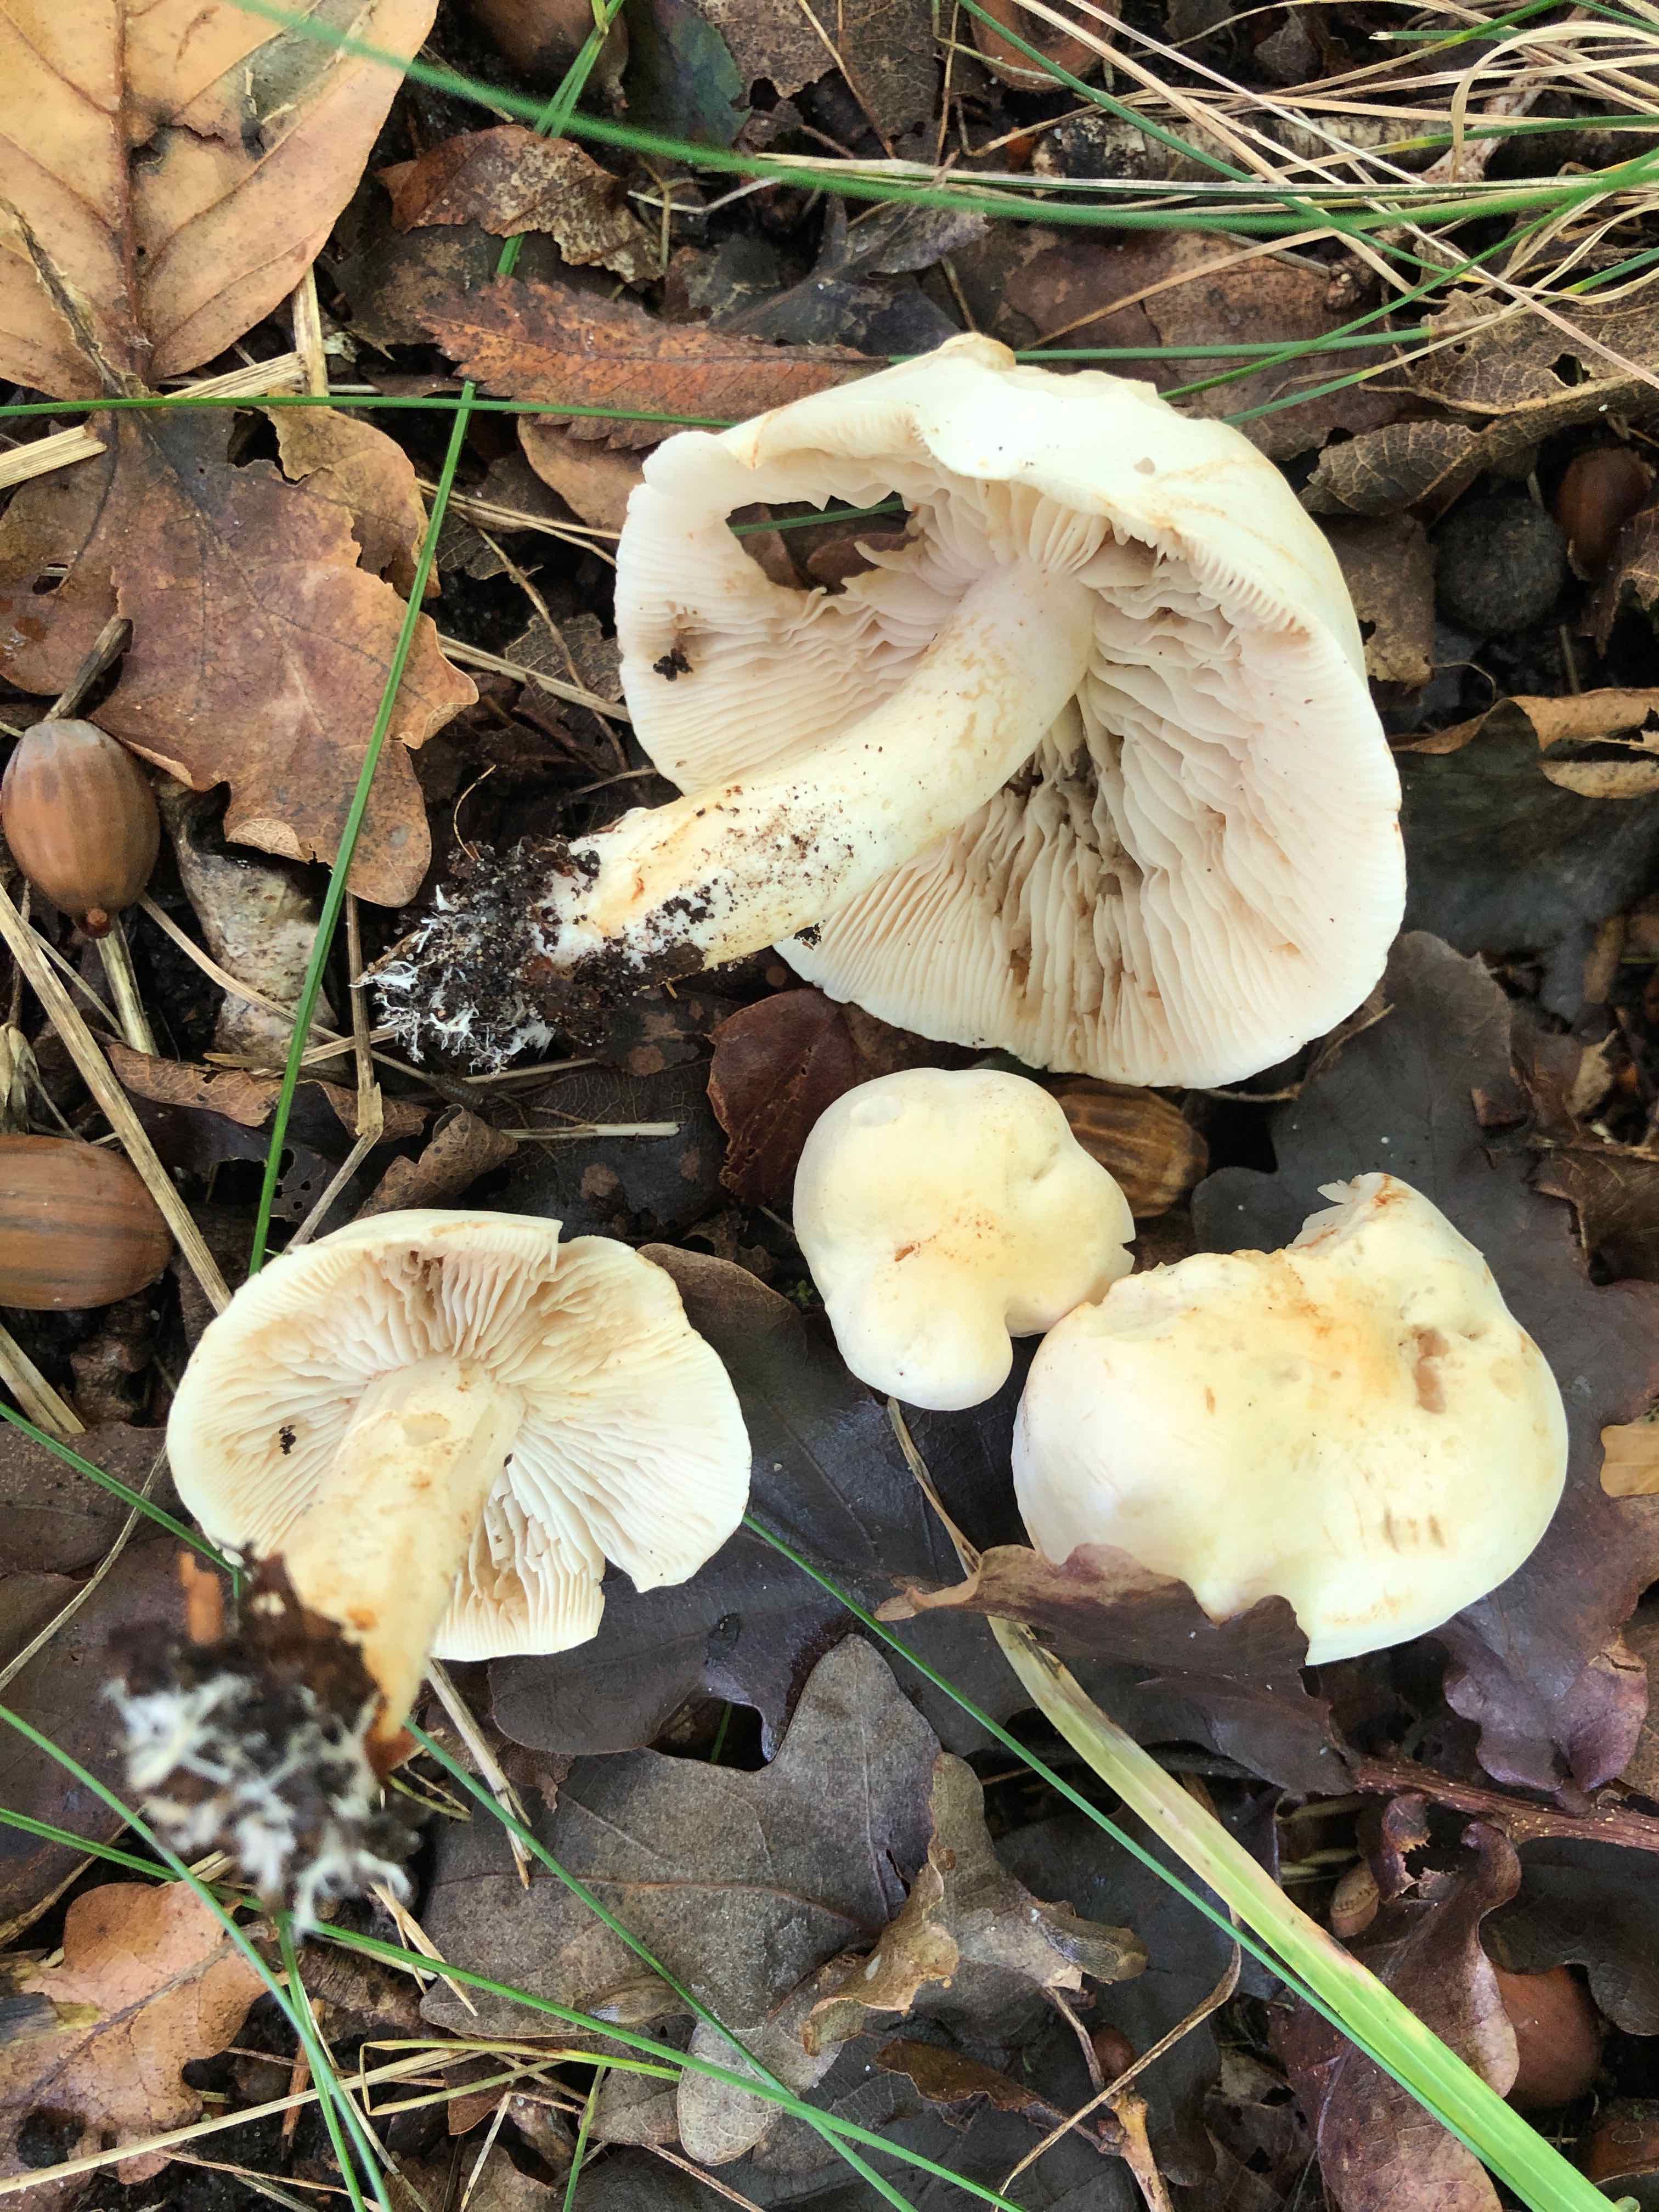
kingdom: Fungi
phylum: Basidiomycota
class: Agaricomycetes
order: Agaricales
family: Tricholomataceae
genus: Tricholoma
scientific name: Tricholoma album
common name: honning-ridderhat
